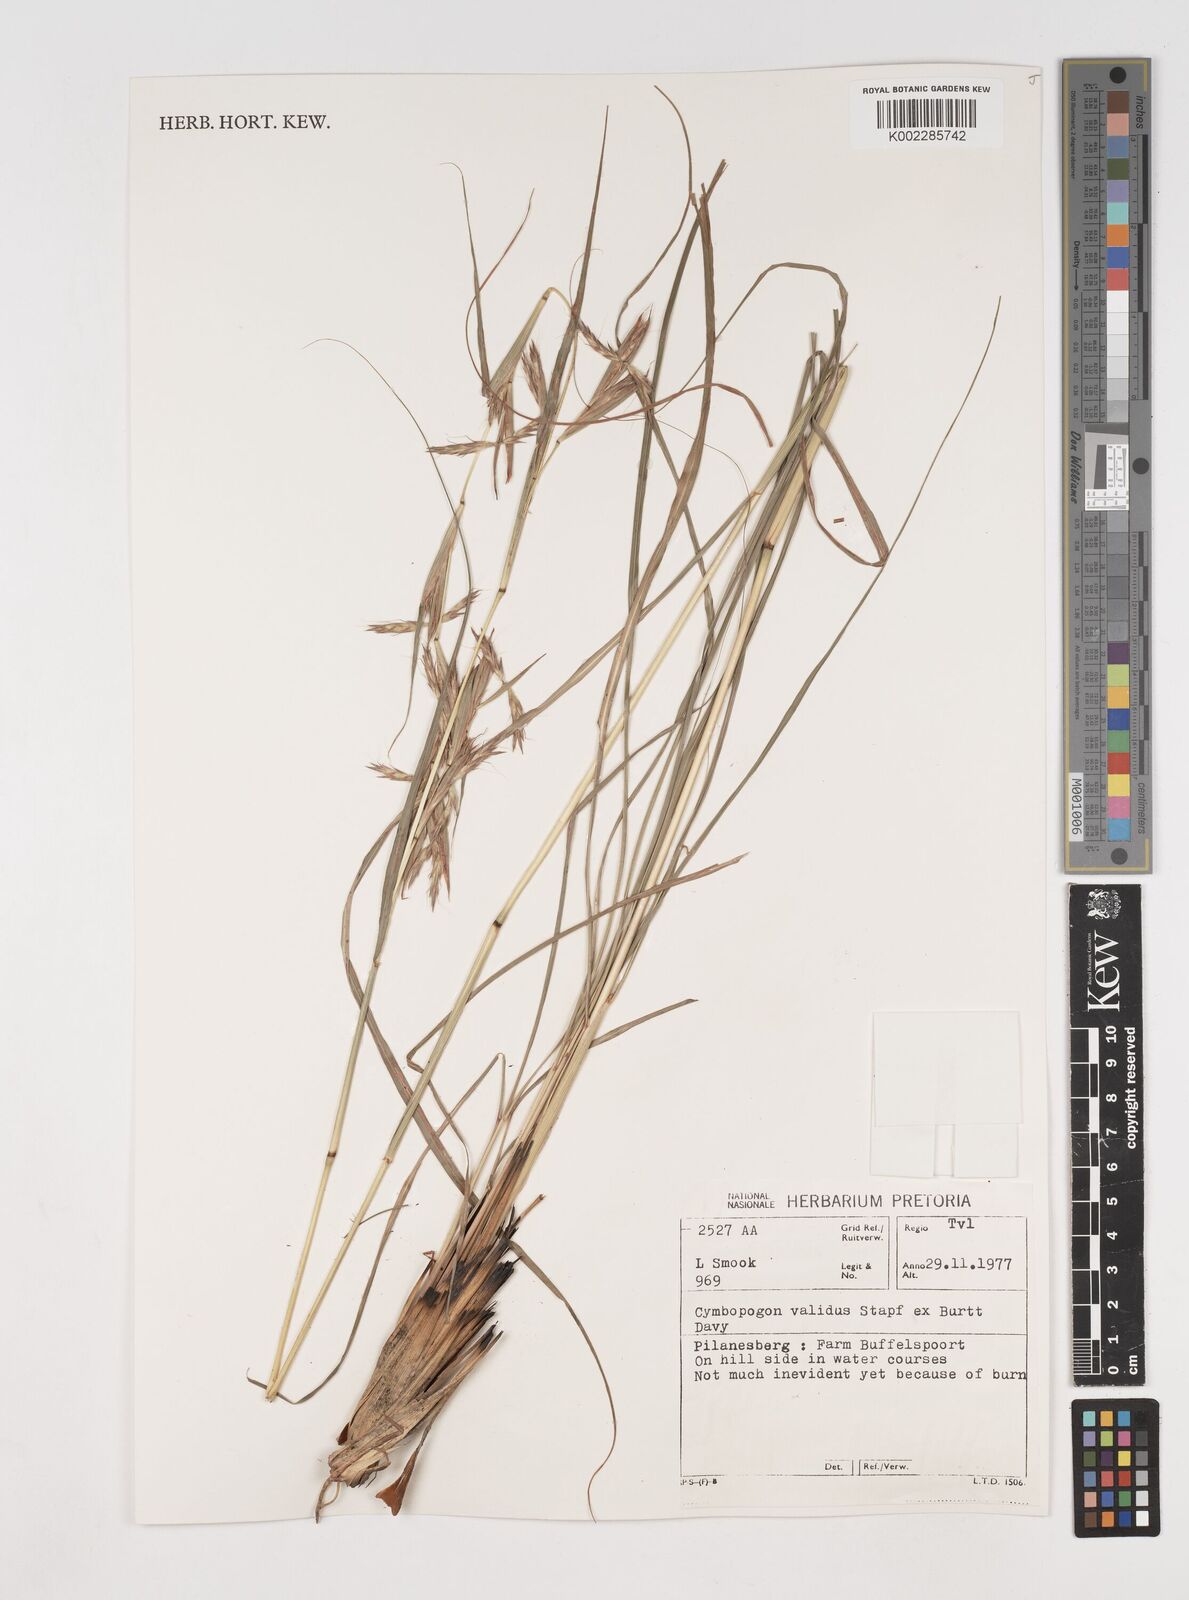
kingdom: Plantae
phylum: Tracheophyta
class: Liliopsida
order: Poales
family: Poaceae
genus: Cymbopogon
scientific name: Cymbopogon nardus
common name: Giant turpentine grass
